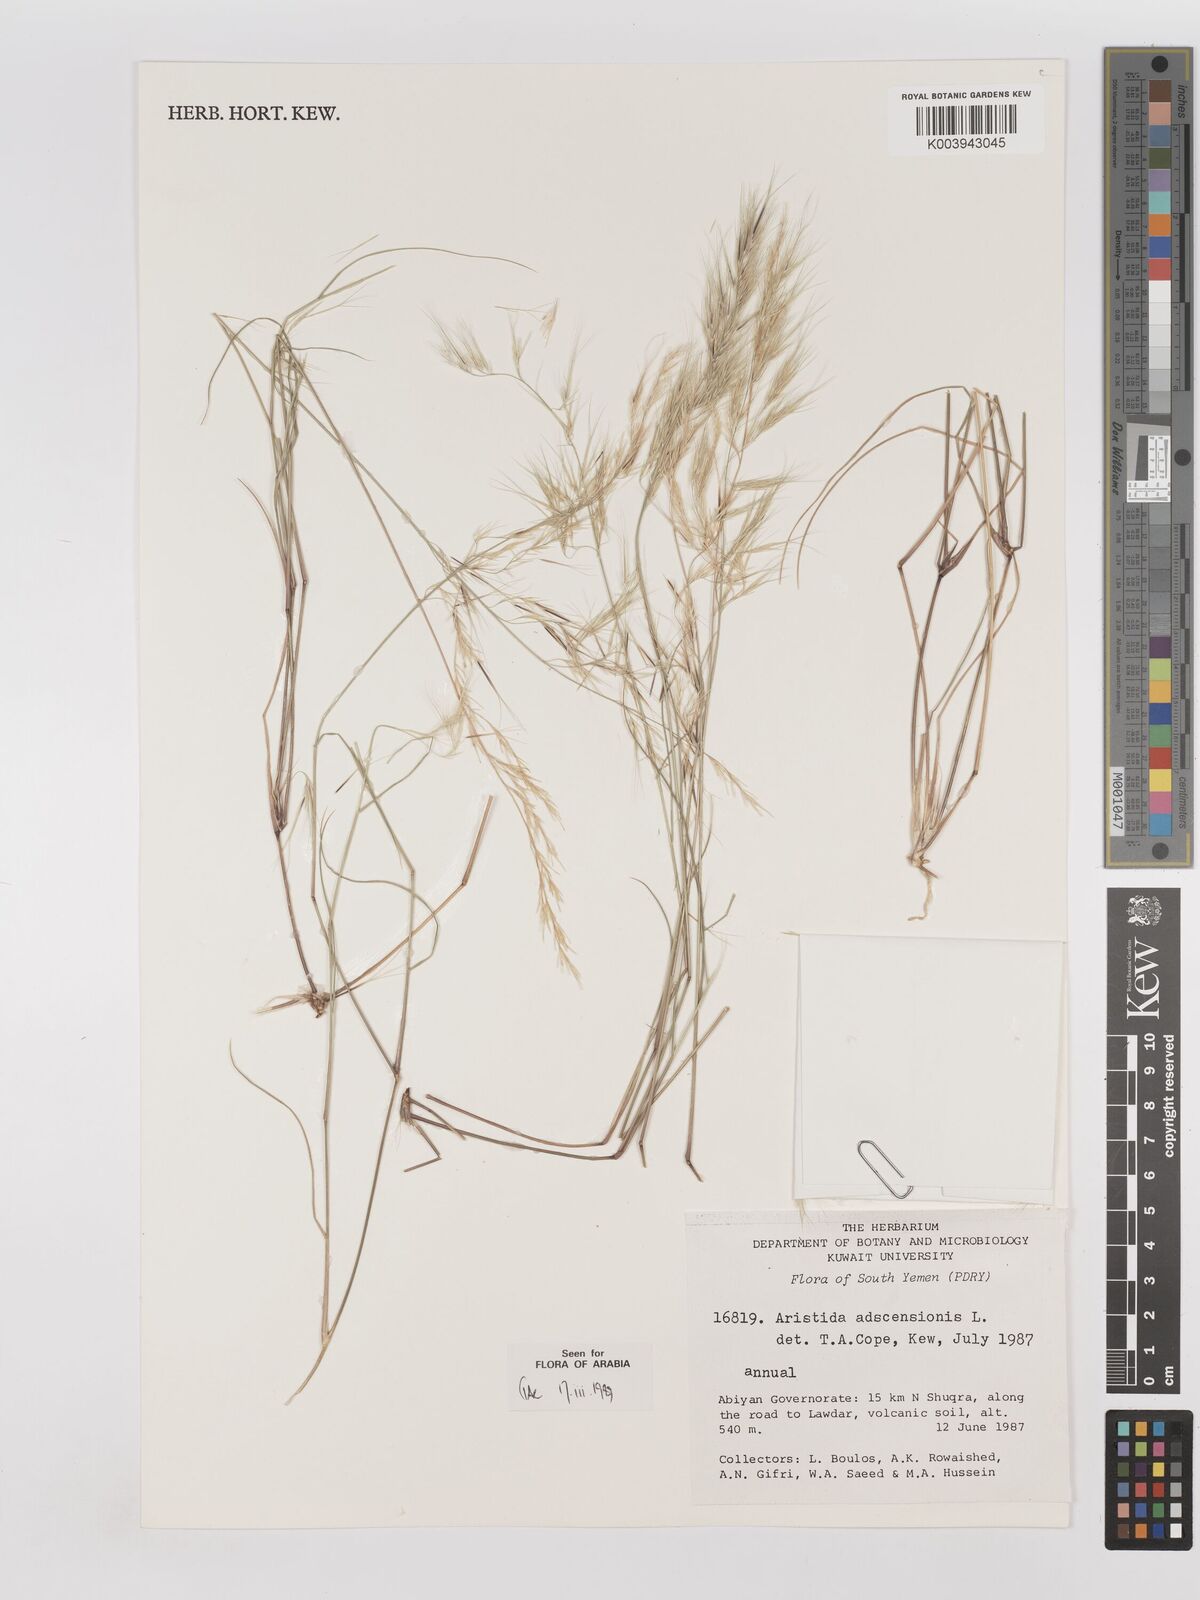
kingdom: Plantae
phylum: Tracheophyta
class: Liliopsida
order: Poales
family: Poaceae
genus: Aristida
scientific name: Aristida adscensionis
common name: Sixweeks threeawn
